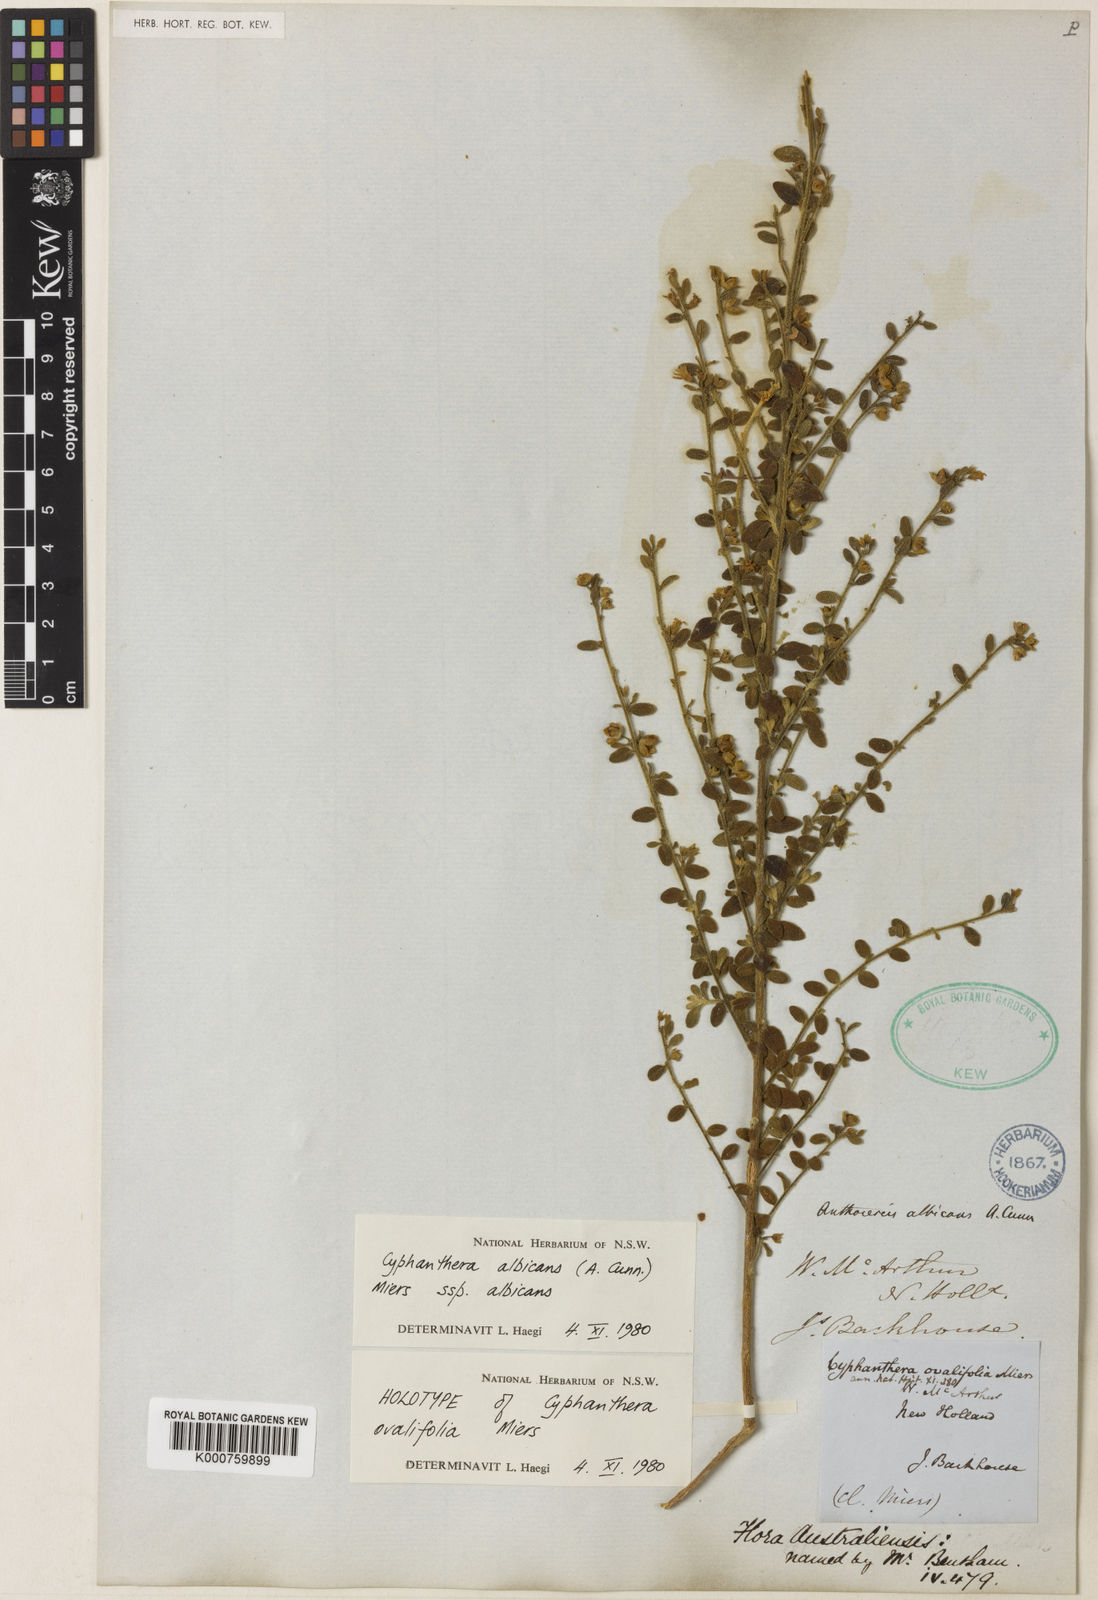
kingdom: Plantae
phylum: Tracheophyta
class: Magnoliopsida
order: Solanales
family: Solanaceae
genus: Cyphanthera
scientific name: Cyphanthera albicans
